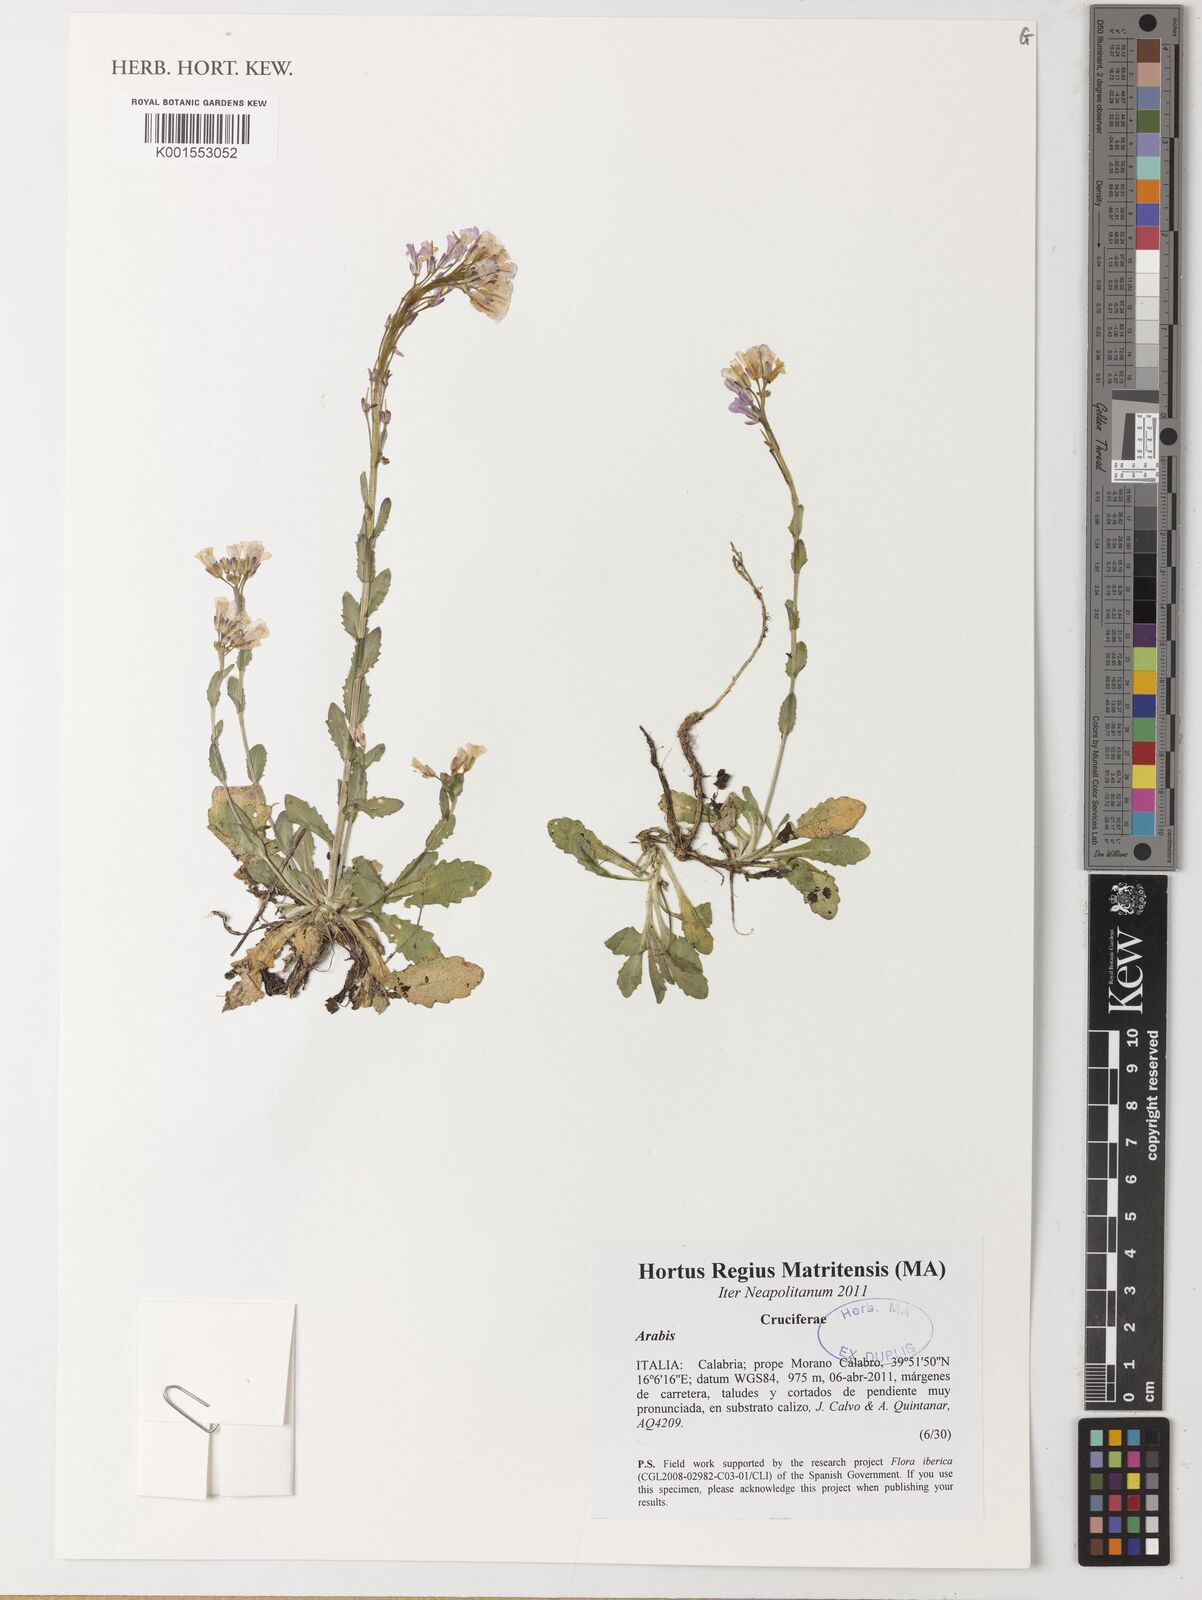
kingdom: Plantae
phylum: Tracheophyta
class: Magnoliopsida
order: Brassicales
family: Brassicaceae
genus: Arabis
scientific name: Arabis alpina
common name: Alpine rock-cress
